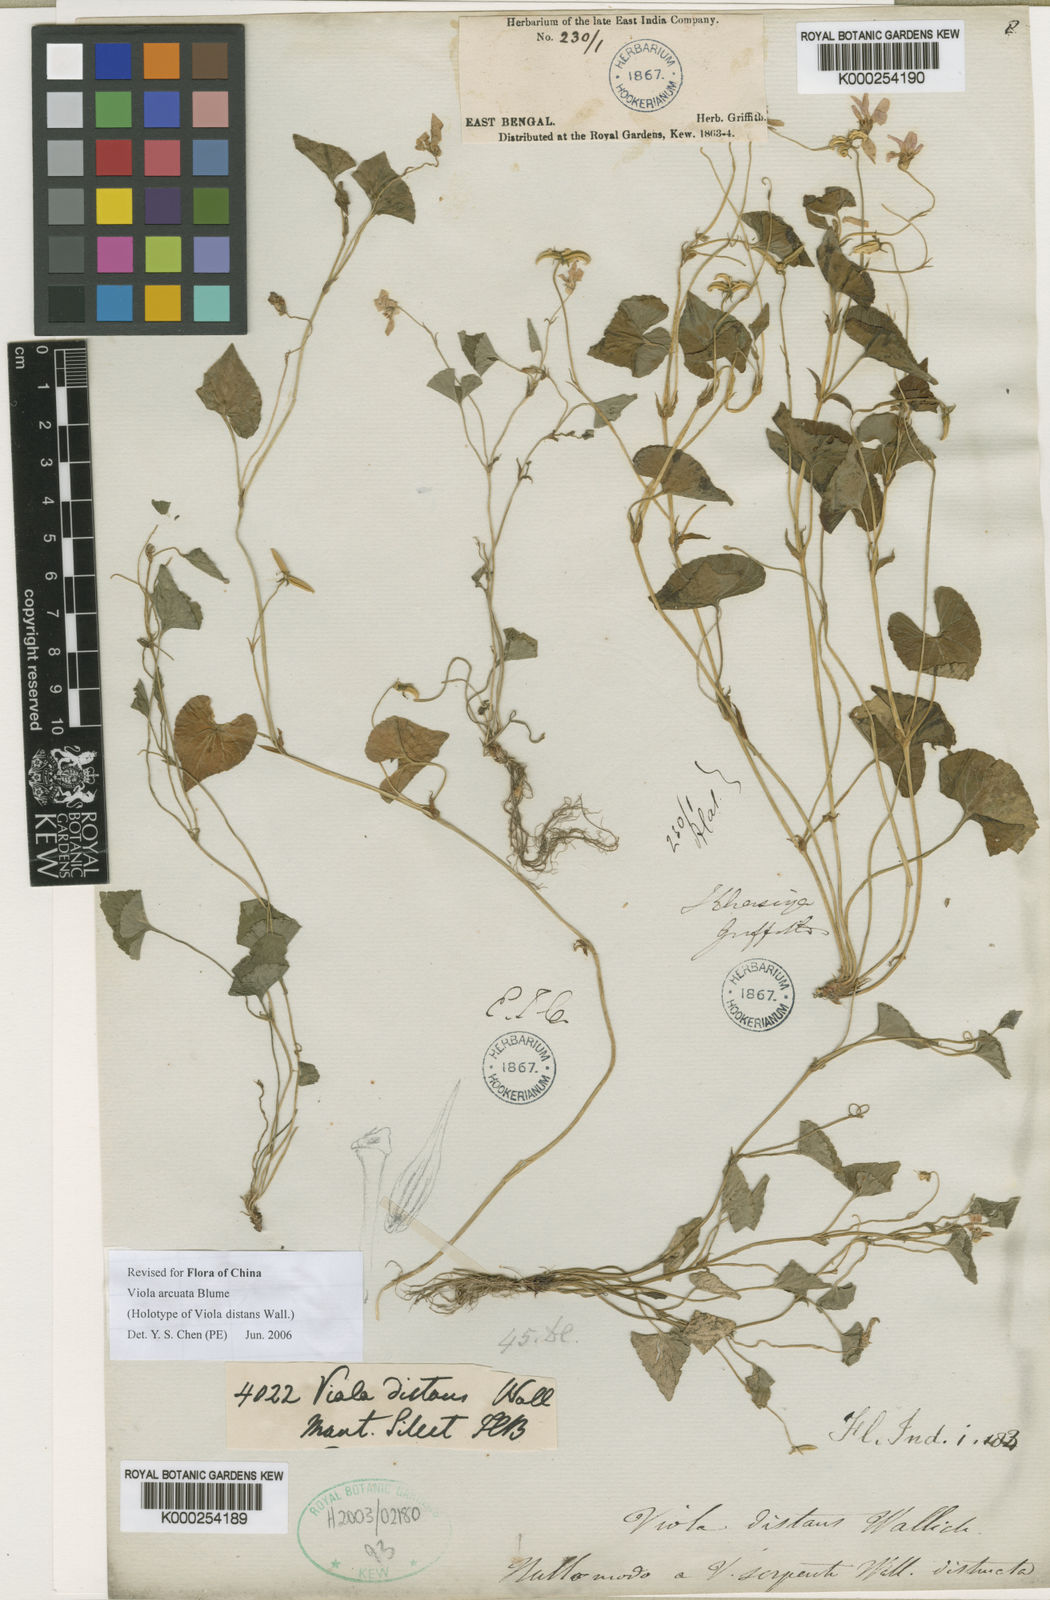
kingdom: Plantae
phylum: Tracheophyta
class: Magnoliopsida
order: Malpighiales
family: Violaceae
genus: Viola
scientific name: Viola hamiltoniana
